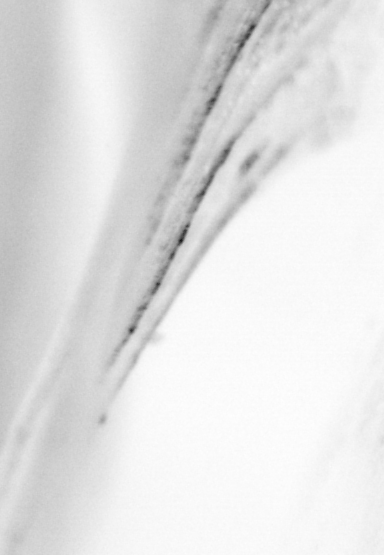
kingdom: Animalia
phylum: Chordata
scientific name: Chordata
